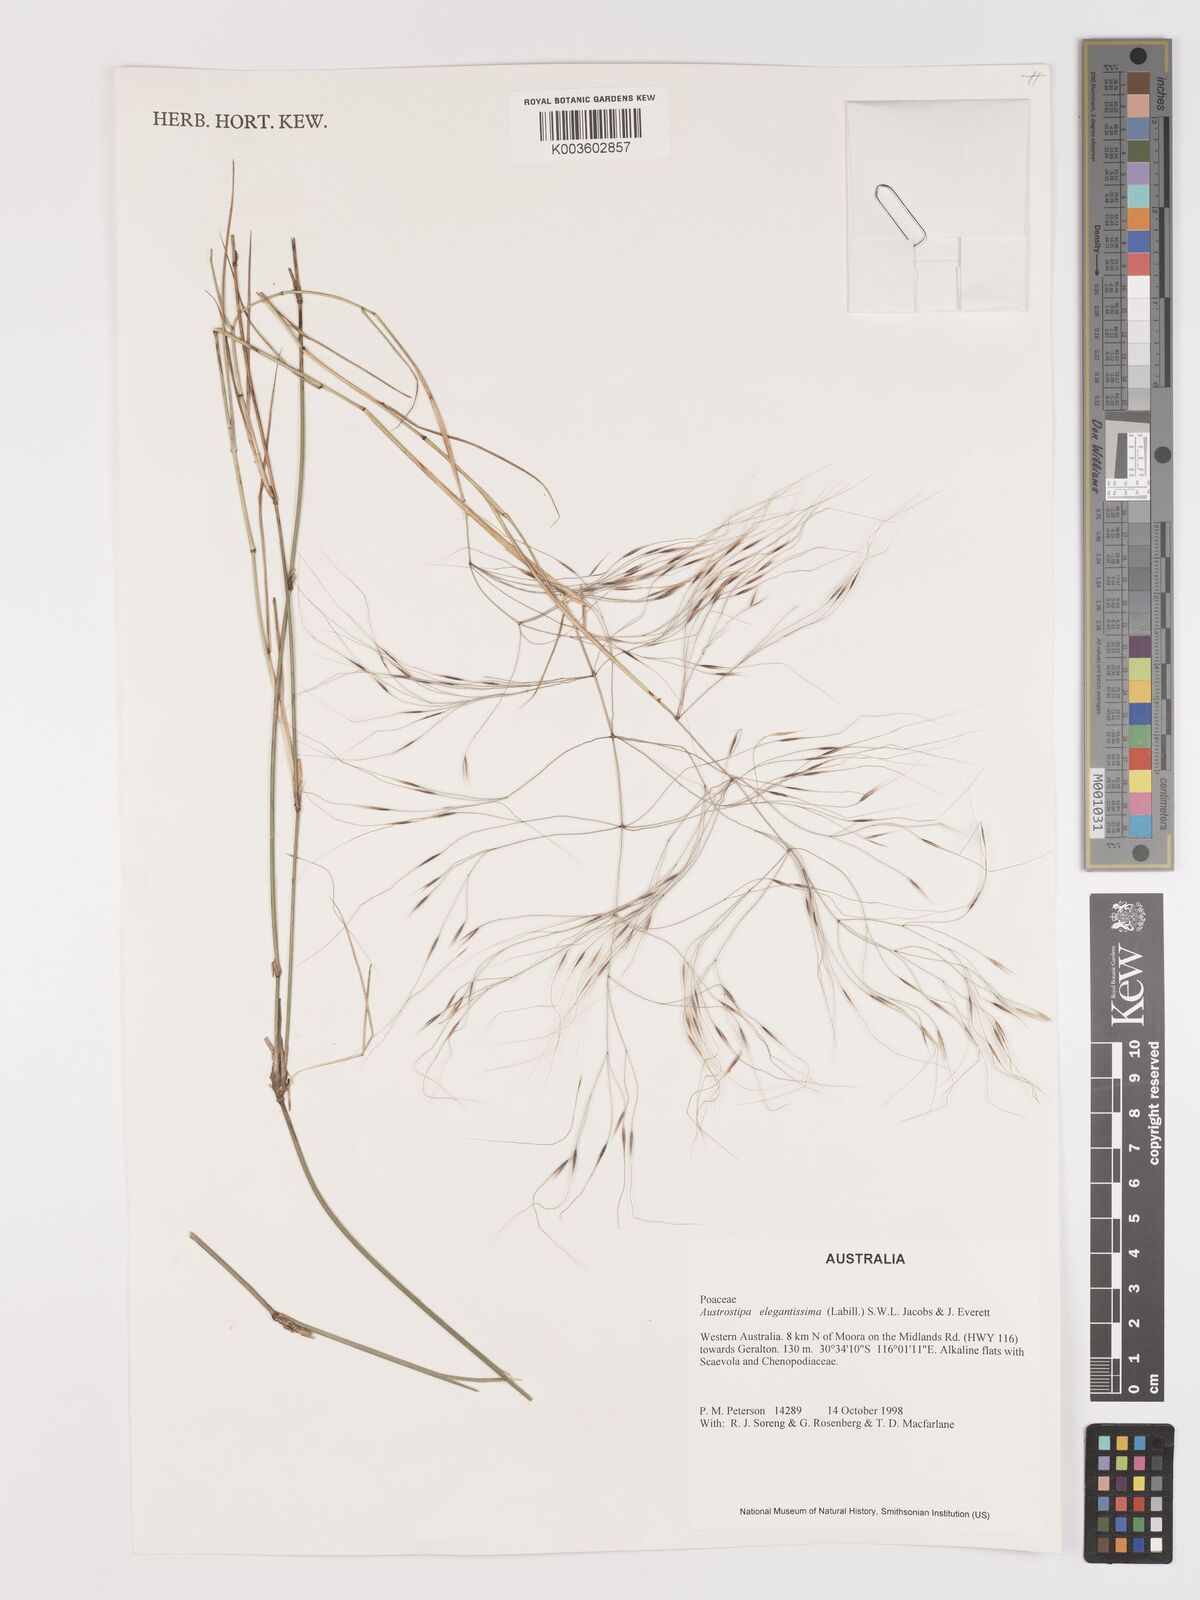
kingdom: Plantae
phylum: Tracheophyta
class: Liliopsida
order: Poales
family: Poaceae
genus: Austrostipa
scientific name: Austrostipa elegantissima
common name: Feather spear grass
